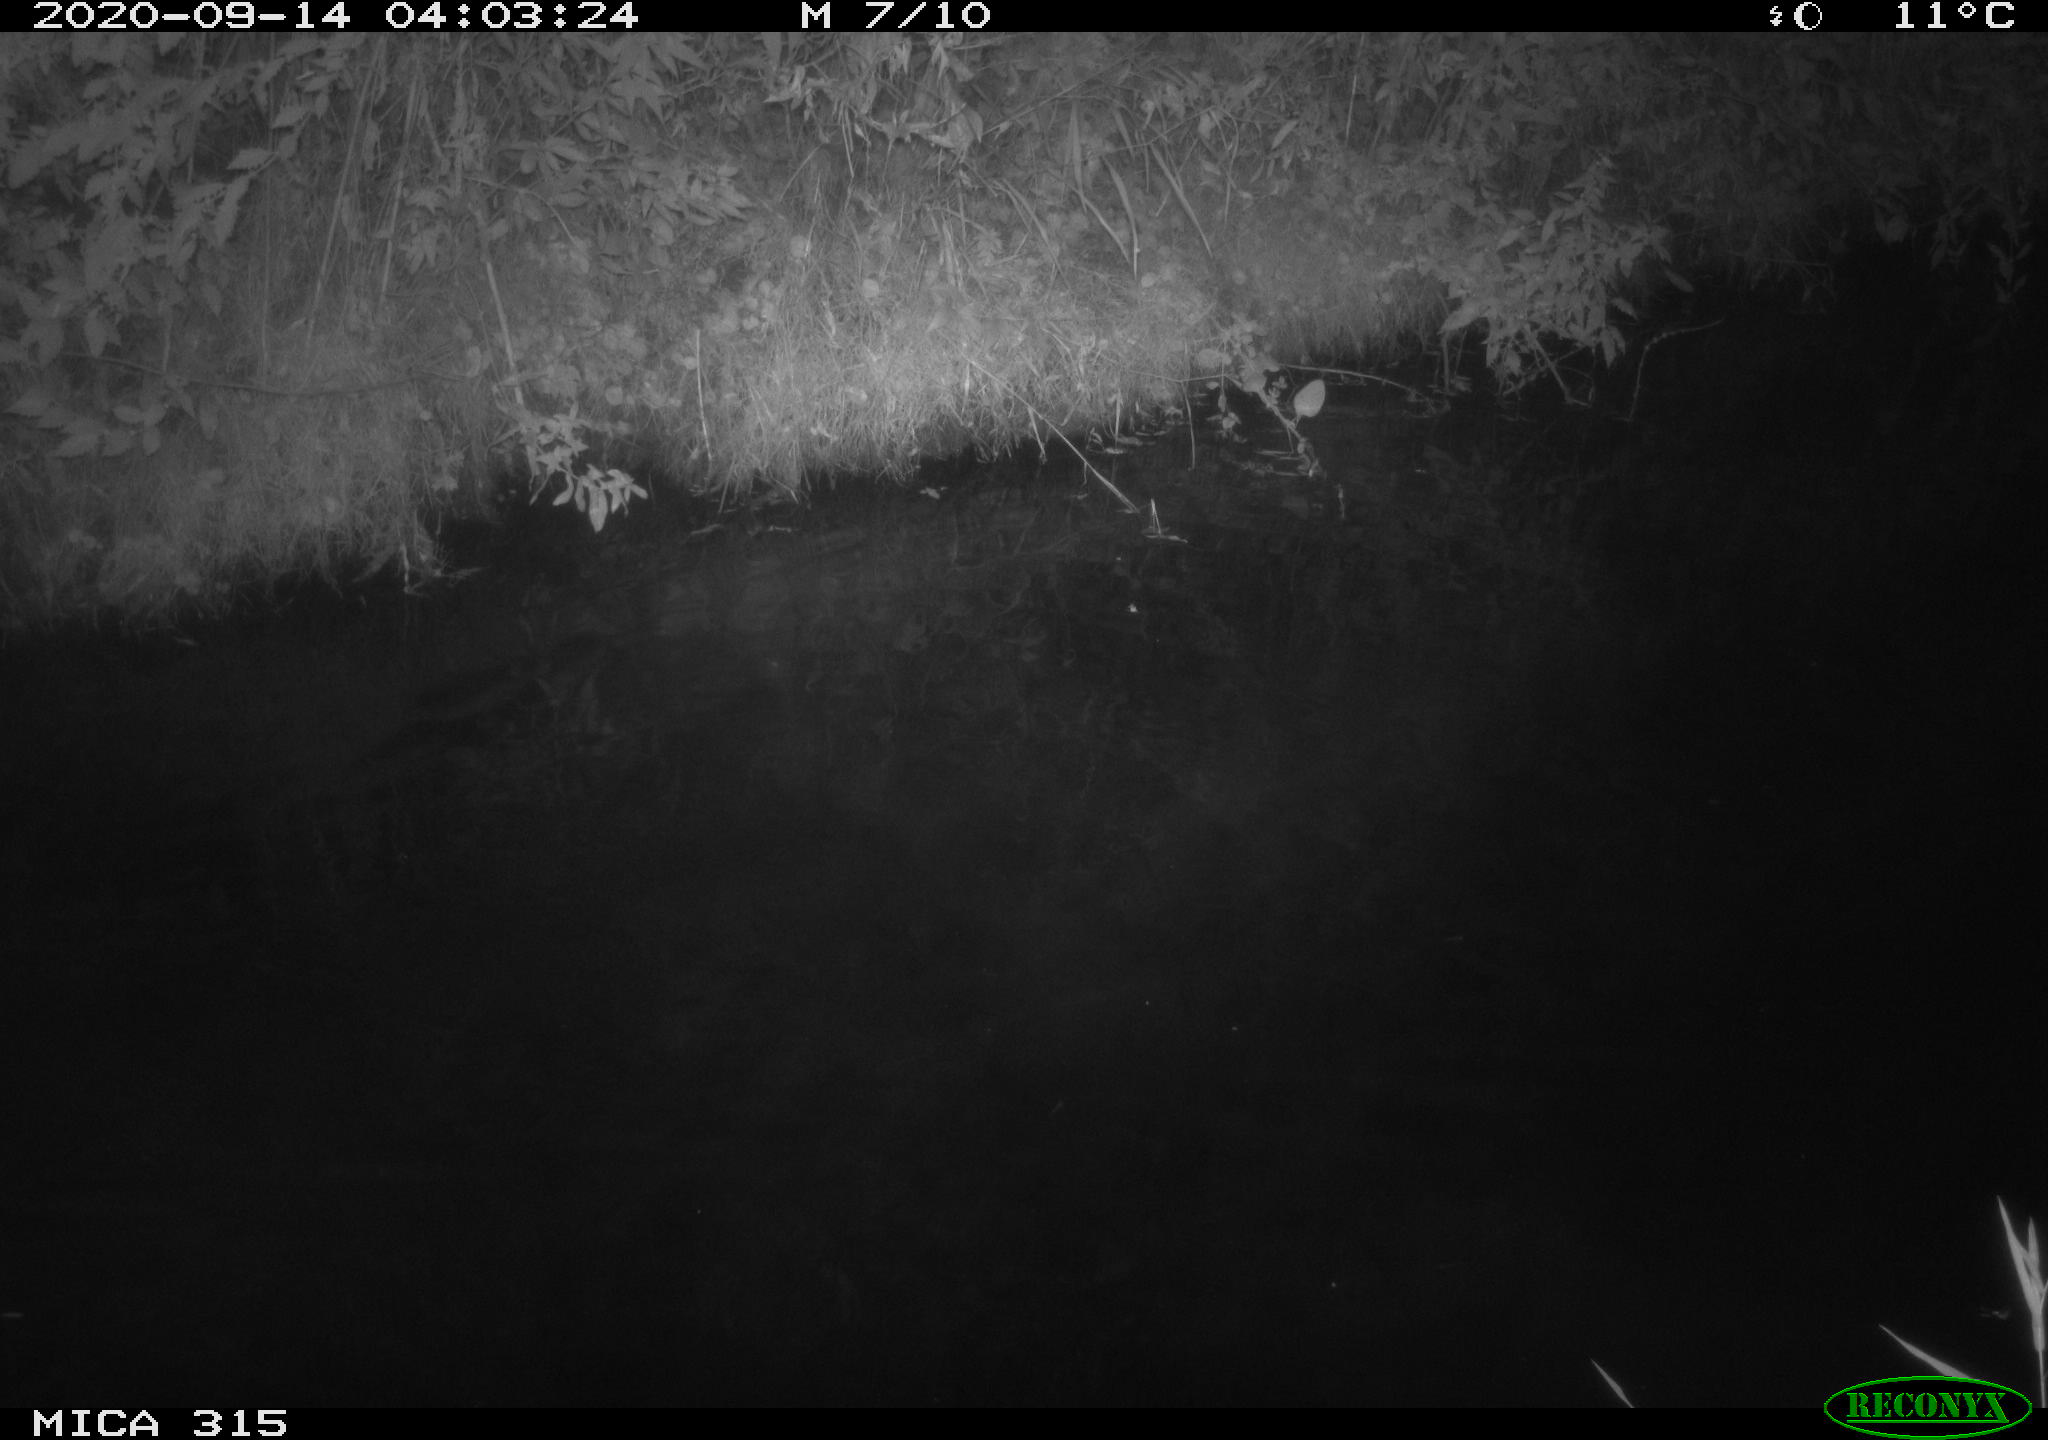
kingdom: Animalia
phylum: Chordata
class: Aves
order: Anseriformes
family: Anatidae
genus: Anas
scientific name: Anas platyrhynchos
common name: Mallard
